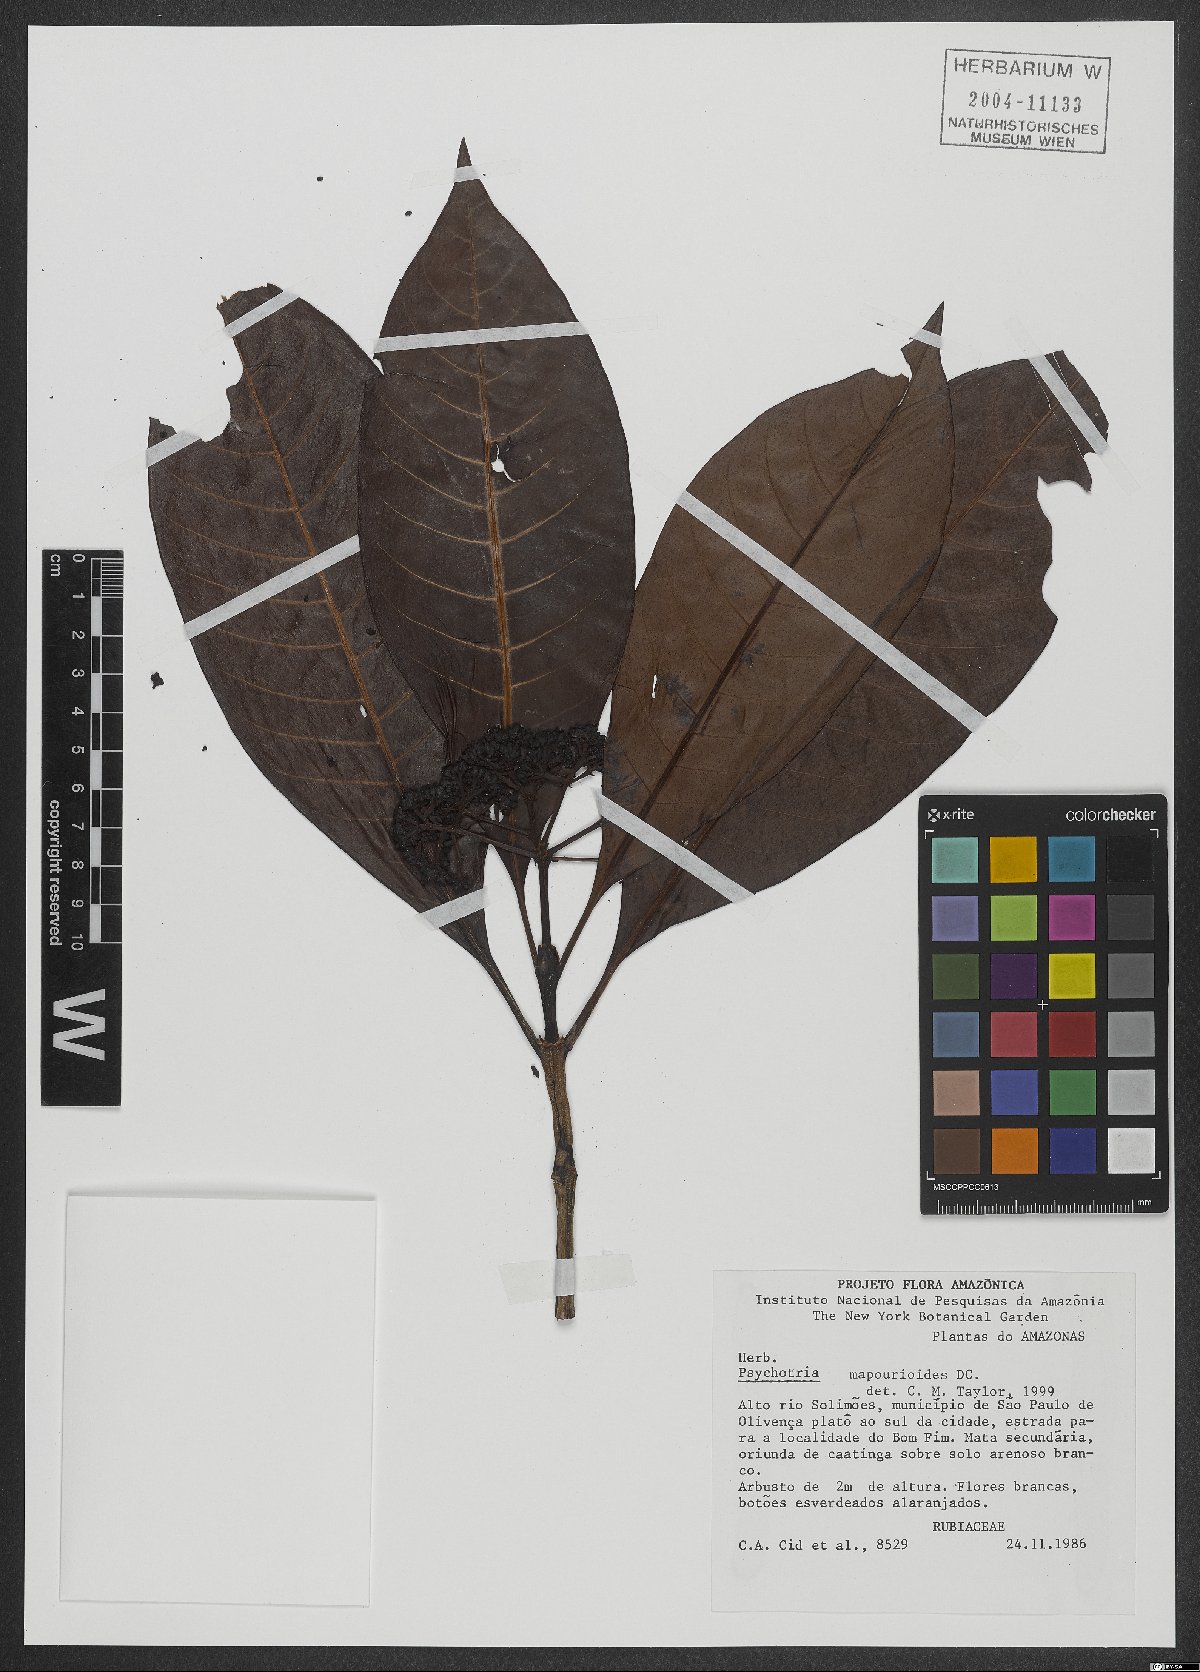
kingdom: Plantae
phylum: Tracheophyta
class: Magnoliopsida
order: Gentianales
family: Rubiaceae
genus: Psychotria
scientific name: Psychotria pedunculosa
